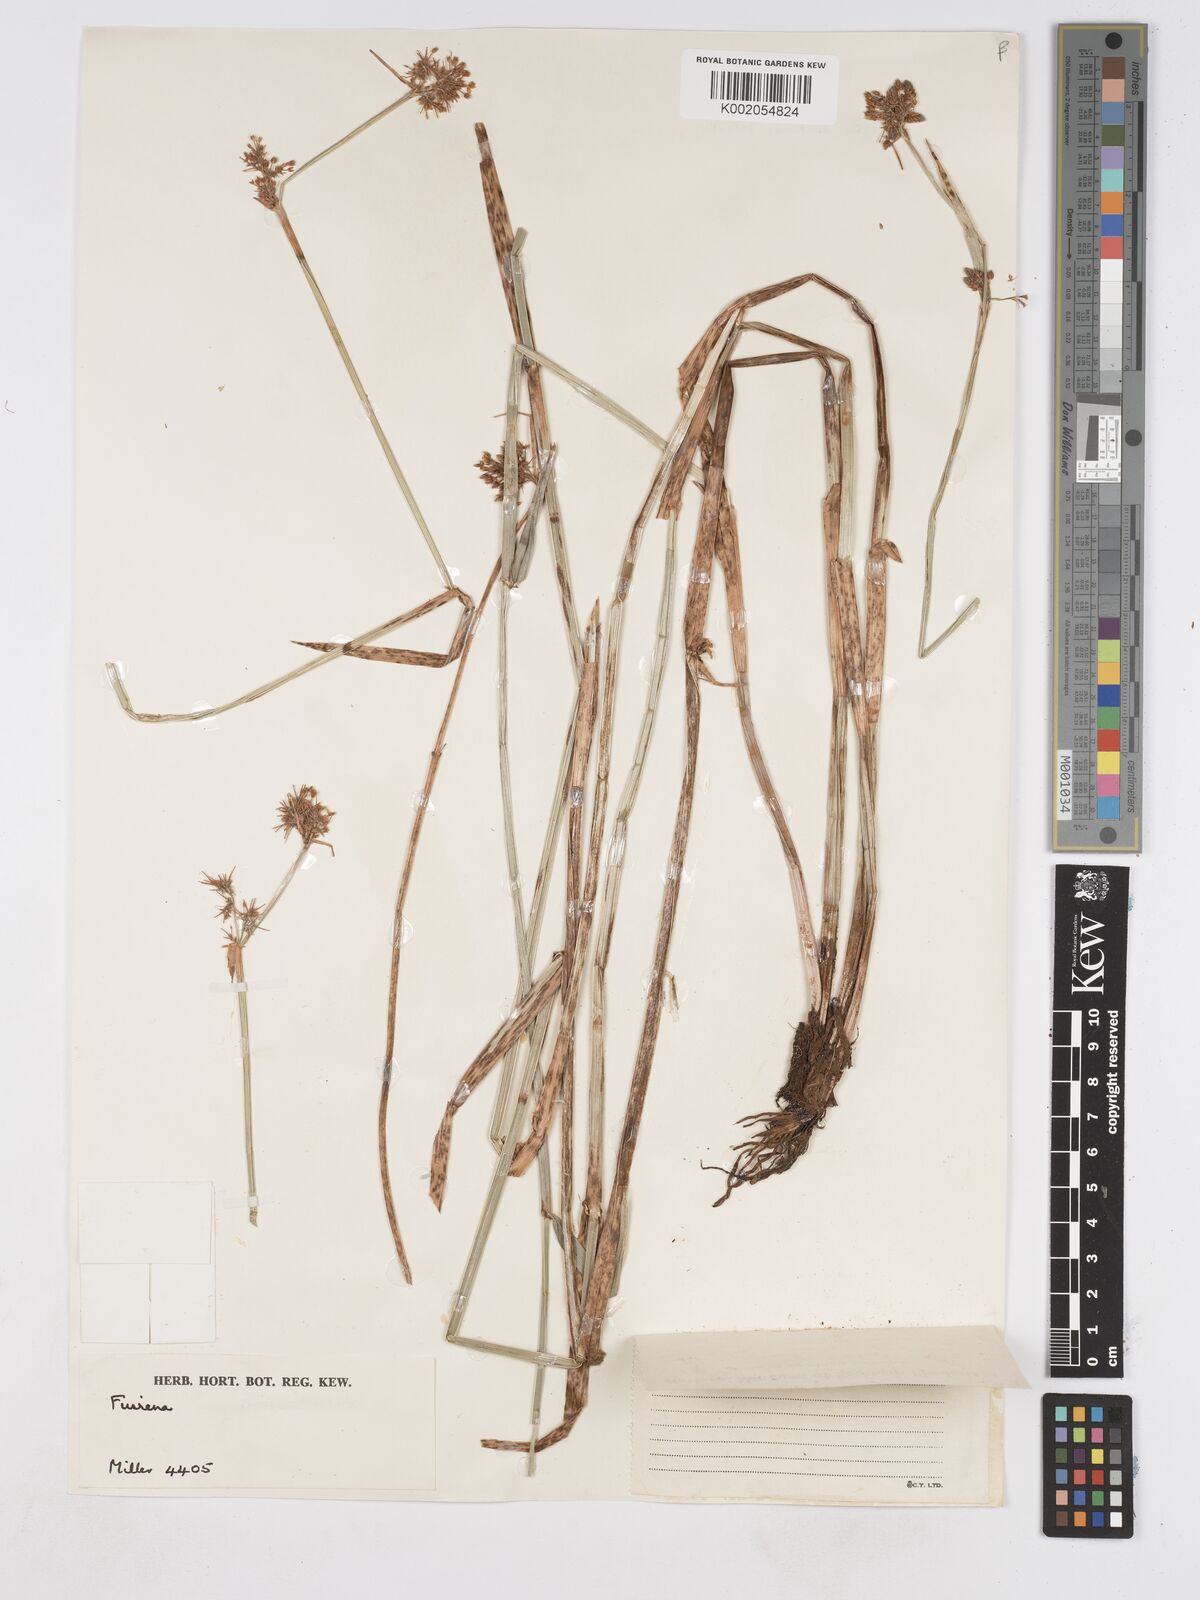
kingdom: Plantae
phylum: Tracheophyta
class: Liliopsida
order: Poales
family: Cyperaceae
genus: Fuirena
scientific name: Fuirena stricta
